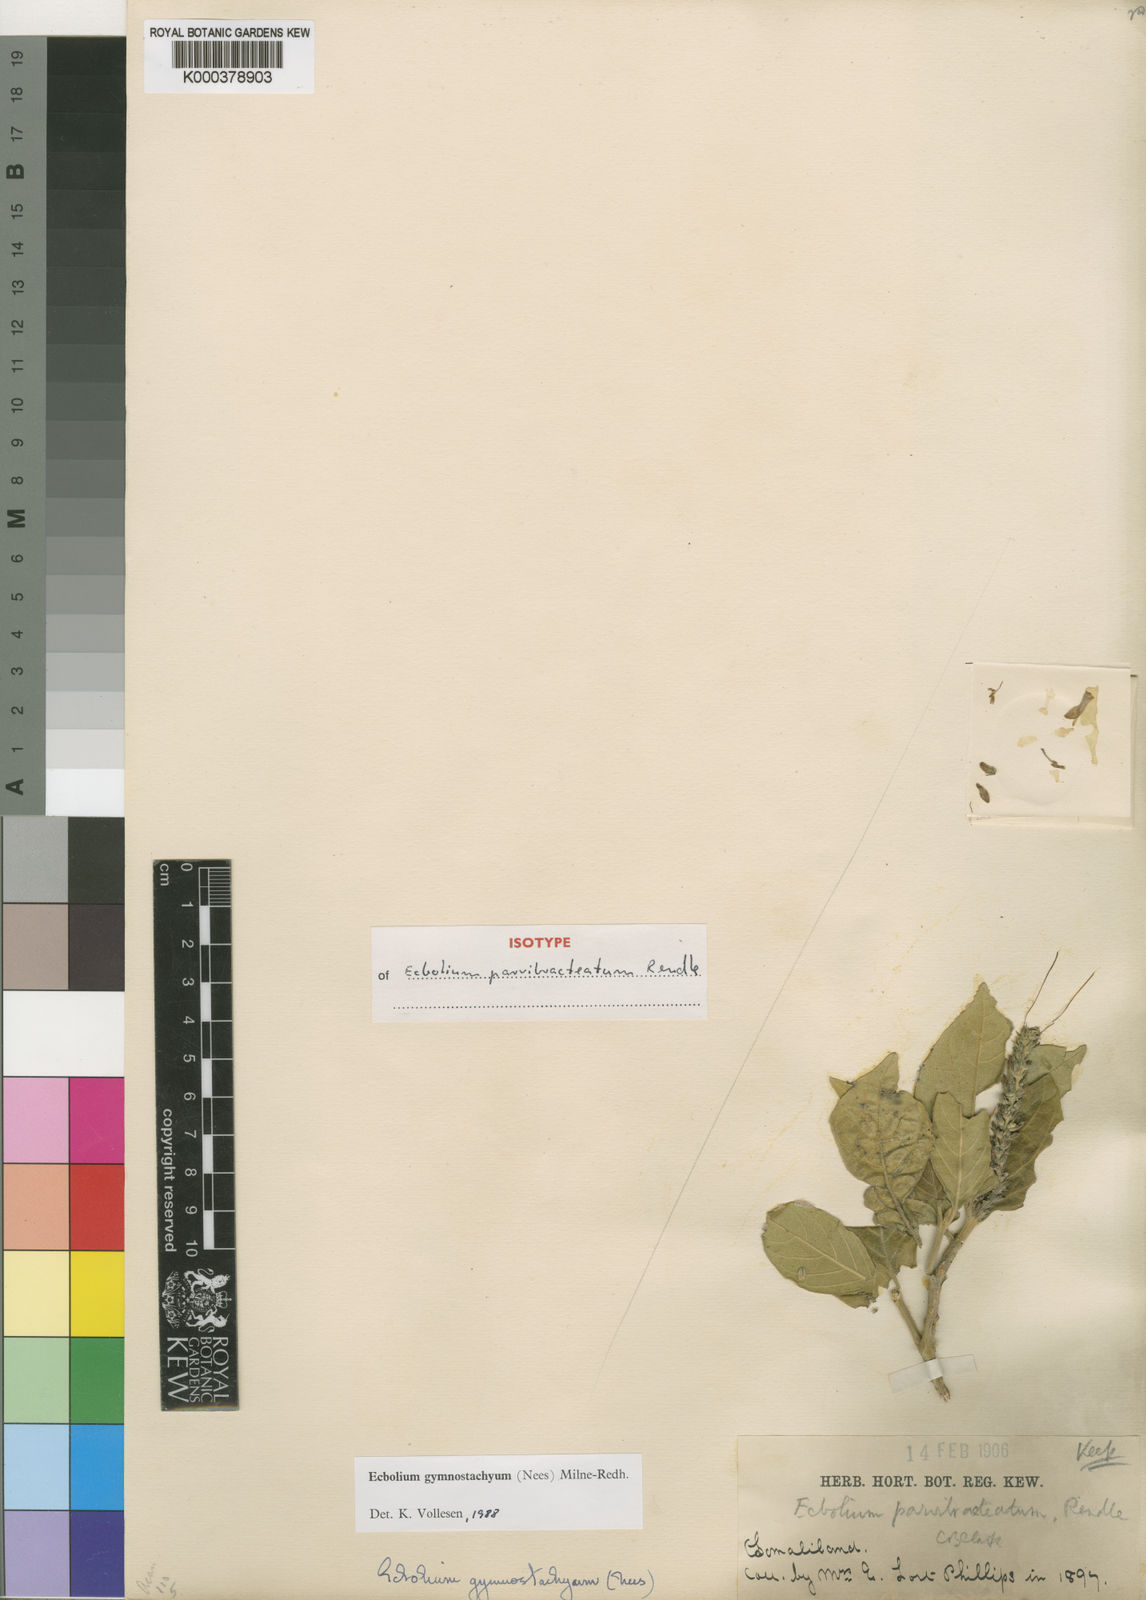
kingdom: Plantae
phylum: Tracheophyta
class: Magnoliopsida
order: Lamiales
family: Acanthaceae
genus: Ecbolium
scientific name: Ecbolium gymnostachyum
